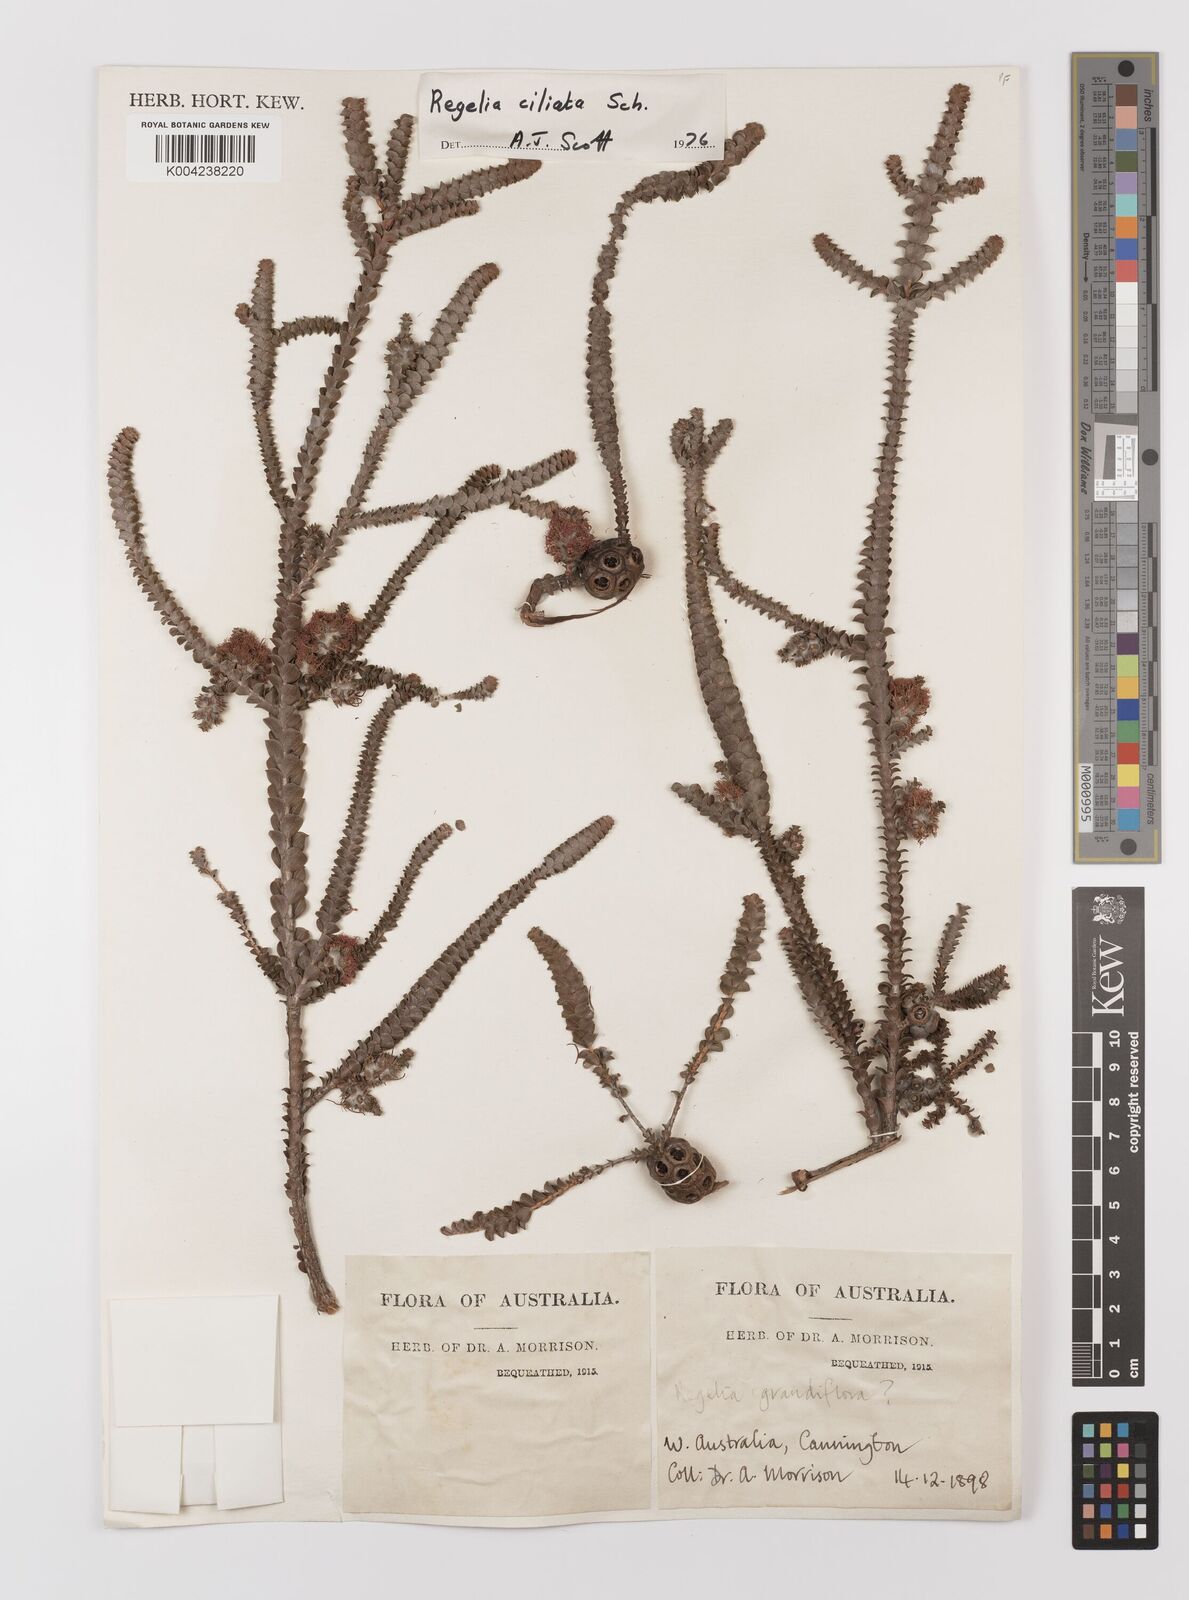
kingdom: Plantae
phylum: Tracheophyta
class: Magnoliopsida
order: Myrtales
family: Myrtaceae
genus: Melaleuca
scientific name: Melaleuca crossota
